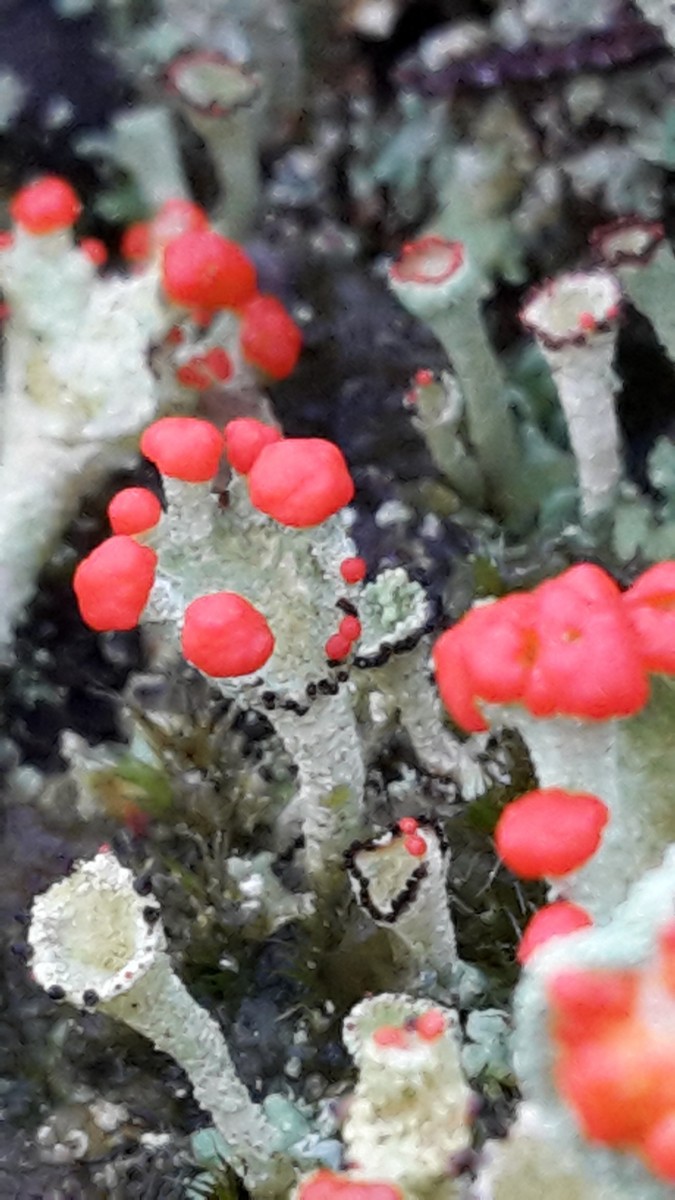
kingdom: Fungi
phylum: Ascomycota
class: Lecanoromycetes
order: Lecanorales
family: Cladoniaceae
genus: Cladonia
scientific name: Cladonia diversa
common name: rød bægerlav
